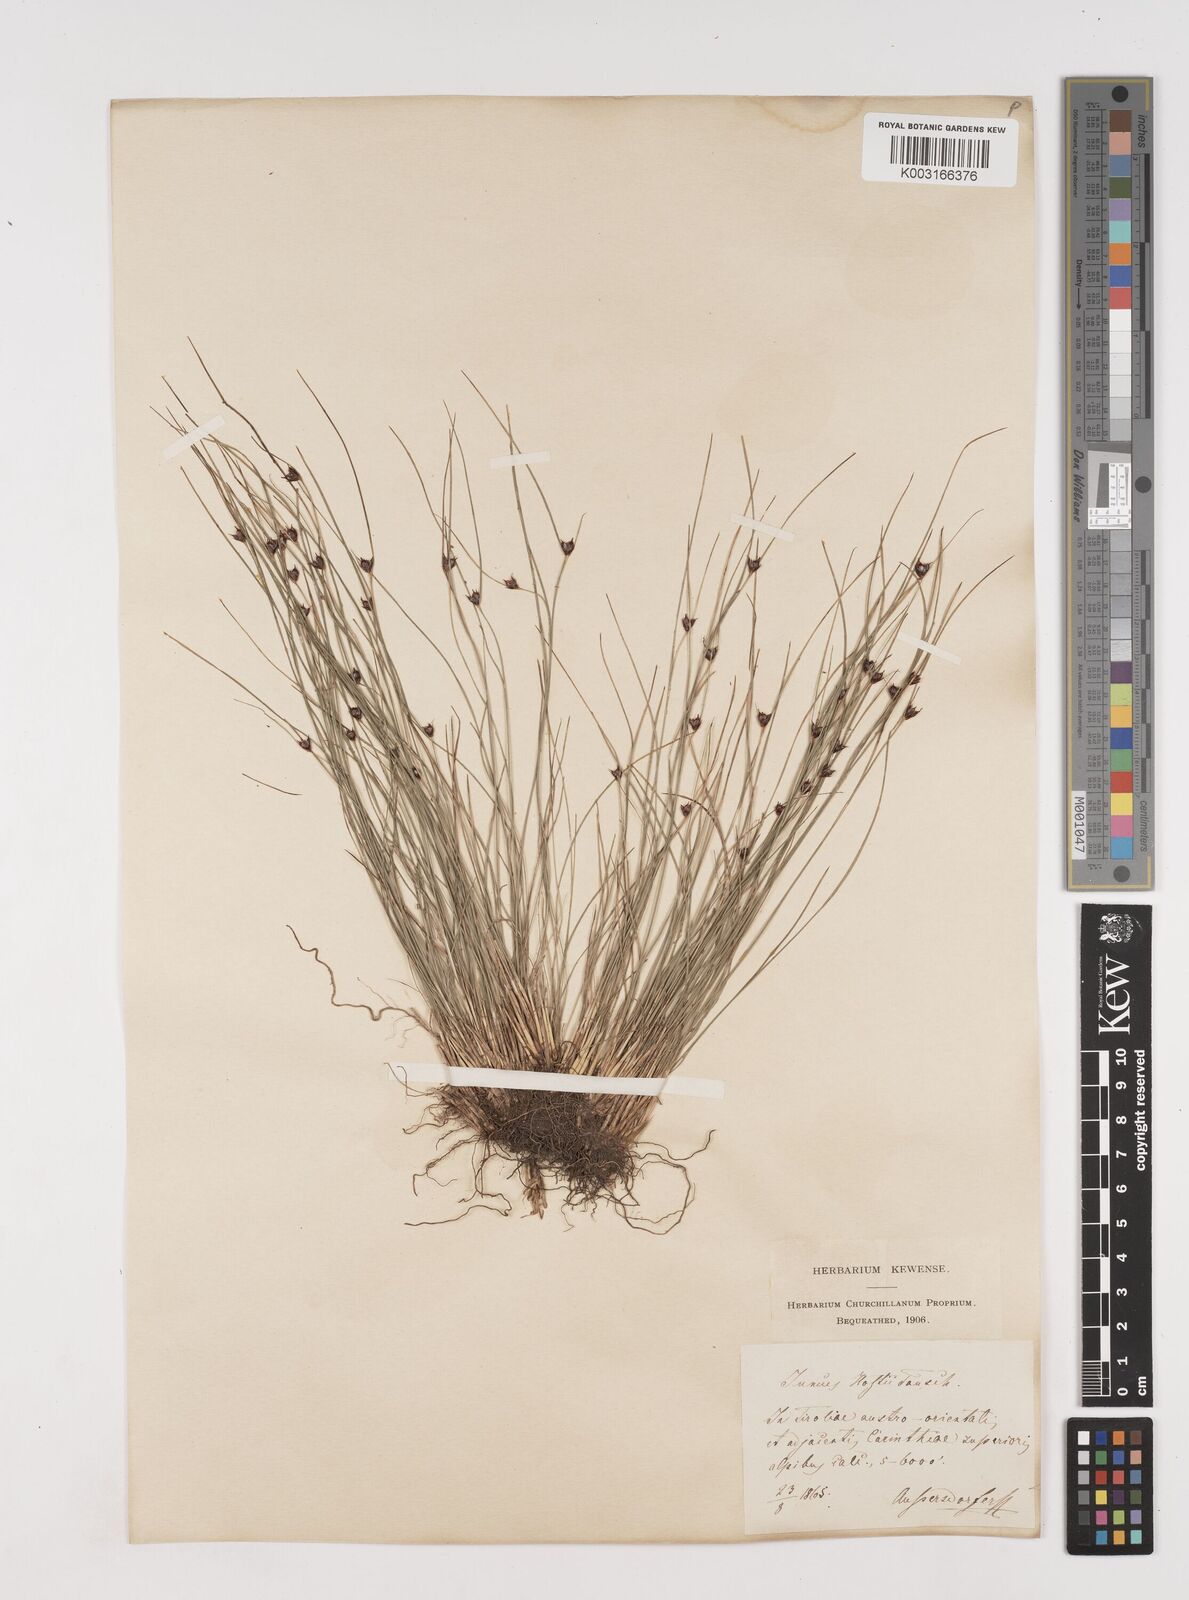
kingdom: Plantae
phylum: Tracheophyta
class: Liliopsida
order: Poales
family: Juncaceae
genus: Oreojuncus
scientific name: Oreojuncus trifidus
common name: Highland rush
